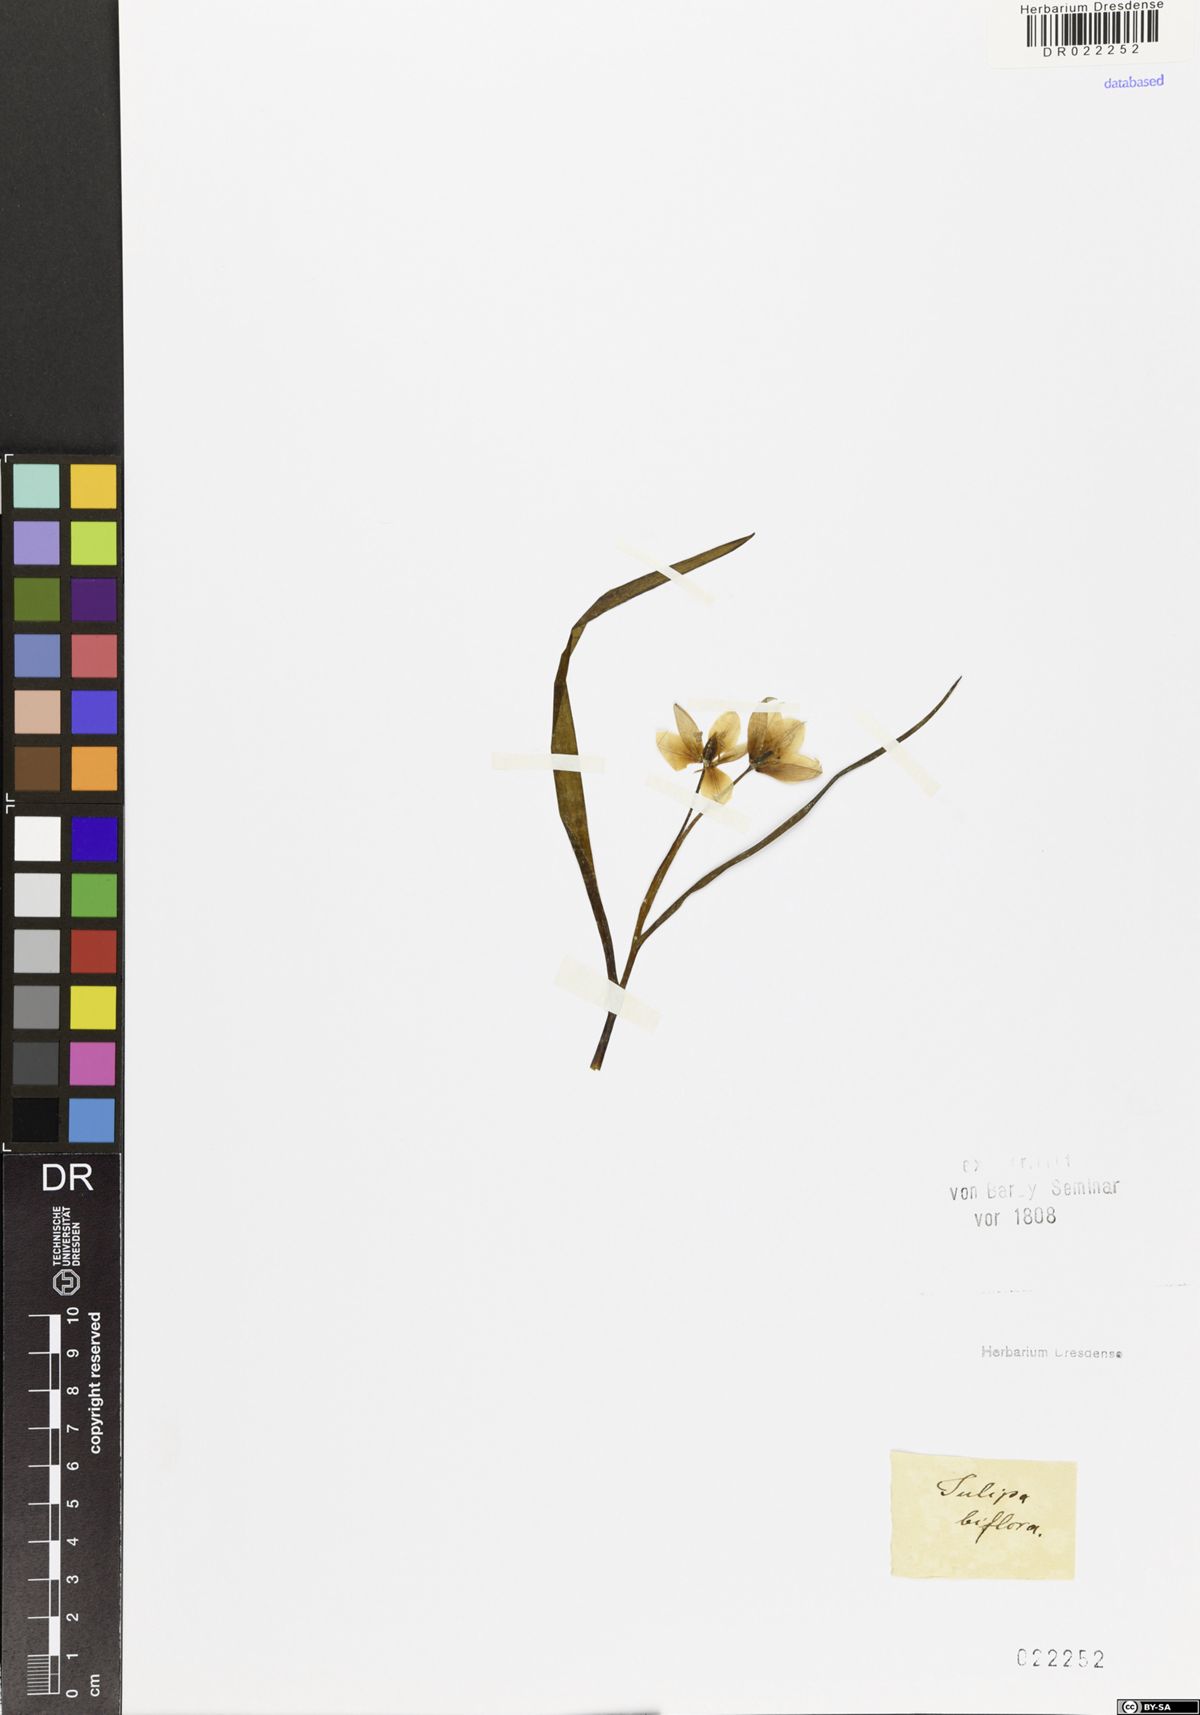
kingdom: Plantae
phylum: Tracheophyta
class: Liliopsida
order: Liliales
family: Liliaceae
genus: Tulipa
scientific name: Tulipa biflora
